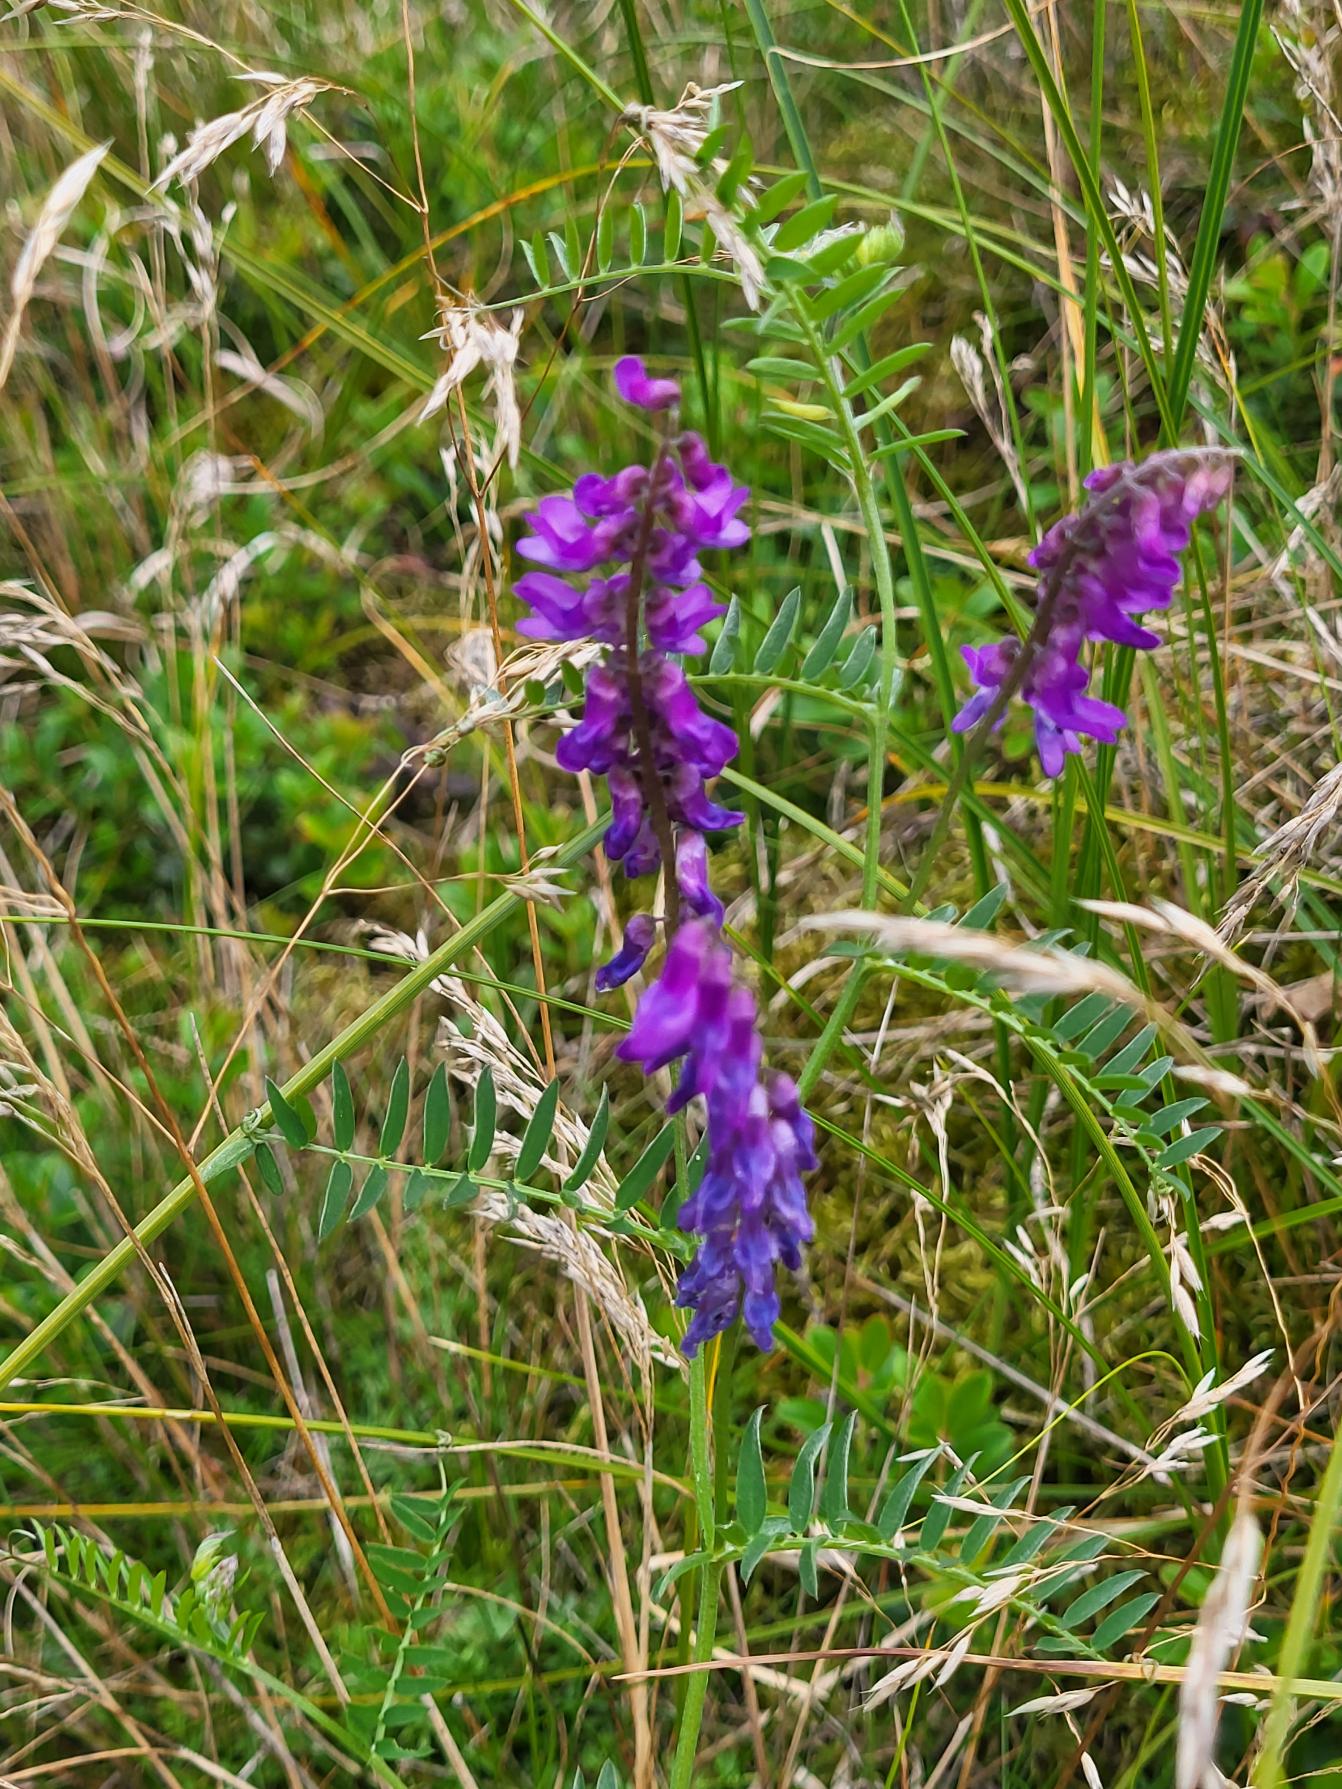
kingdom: Plantae
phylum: Tracheophyta
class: Magnoliopsida
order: Fabales
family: Fabaceae
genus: Vicia
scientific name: Vicia cracca
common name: Muse-vikke
